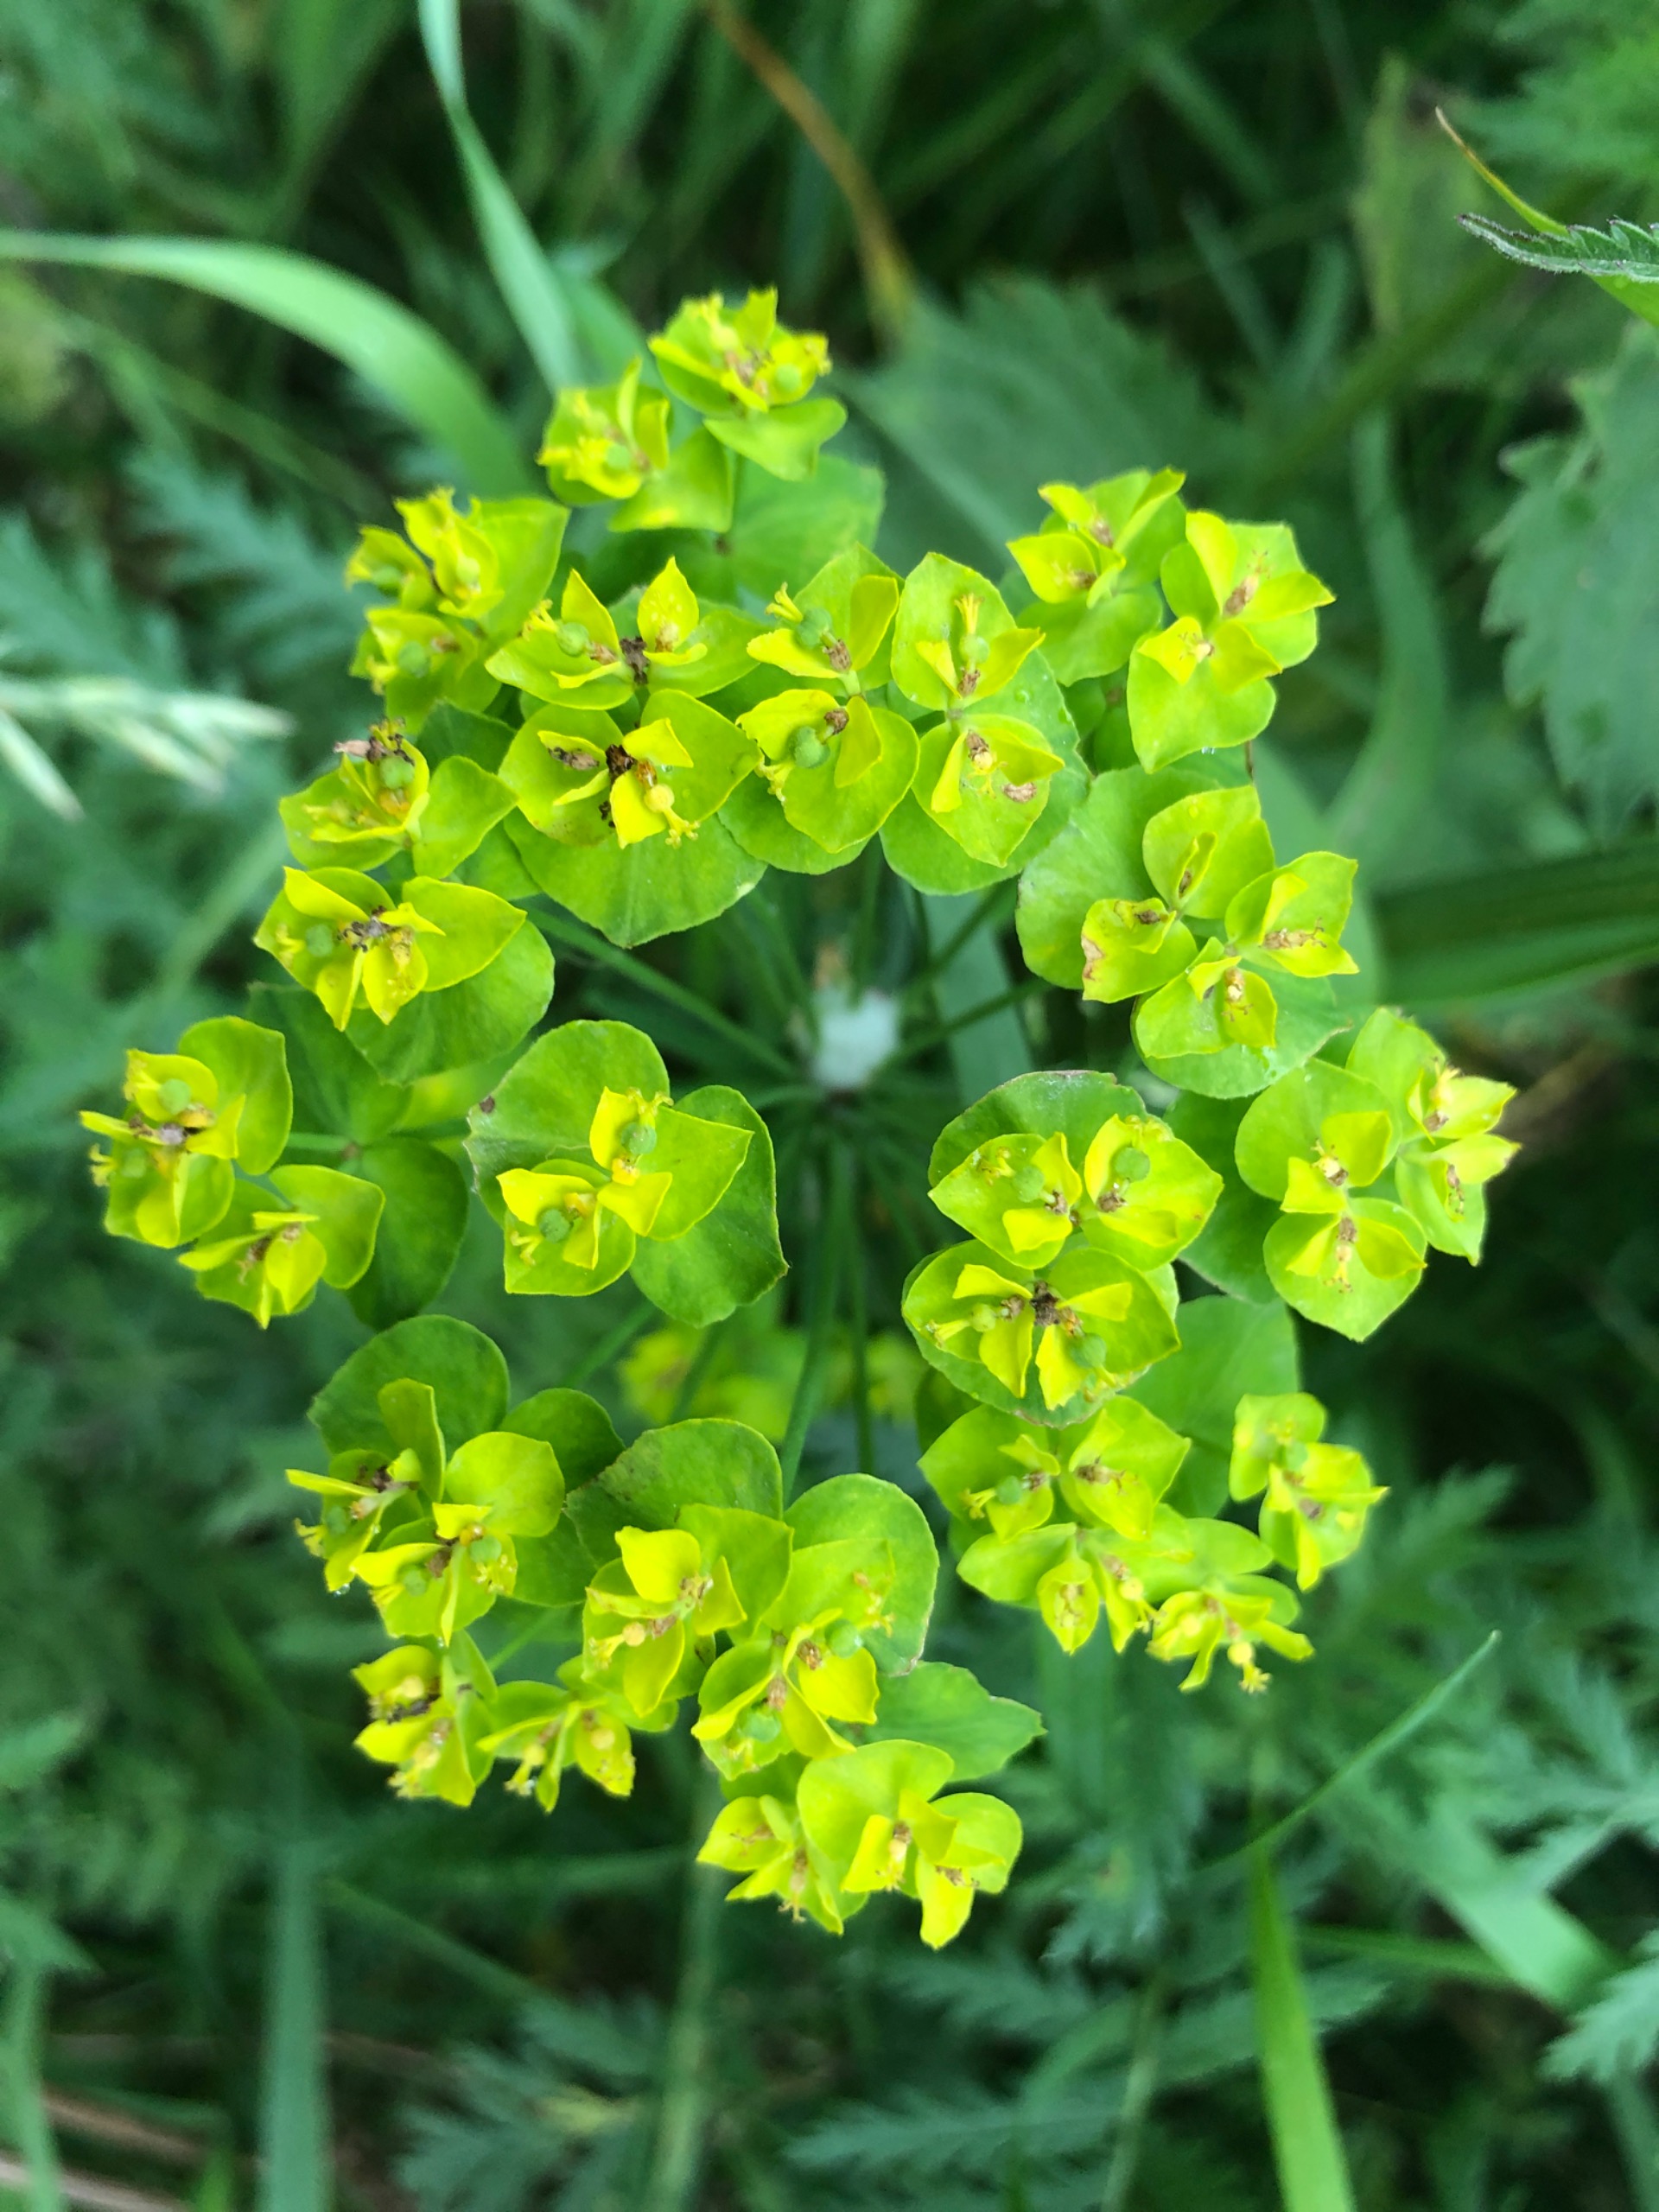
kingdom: Plantae
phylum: Tracheophyta
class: Magnoliopsida
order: Malpighiales
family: Euphorbiaceae
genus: Euphorbia
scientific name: Euphorbia helioscopia
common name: Skærm-vortemælk
